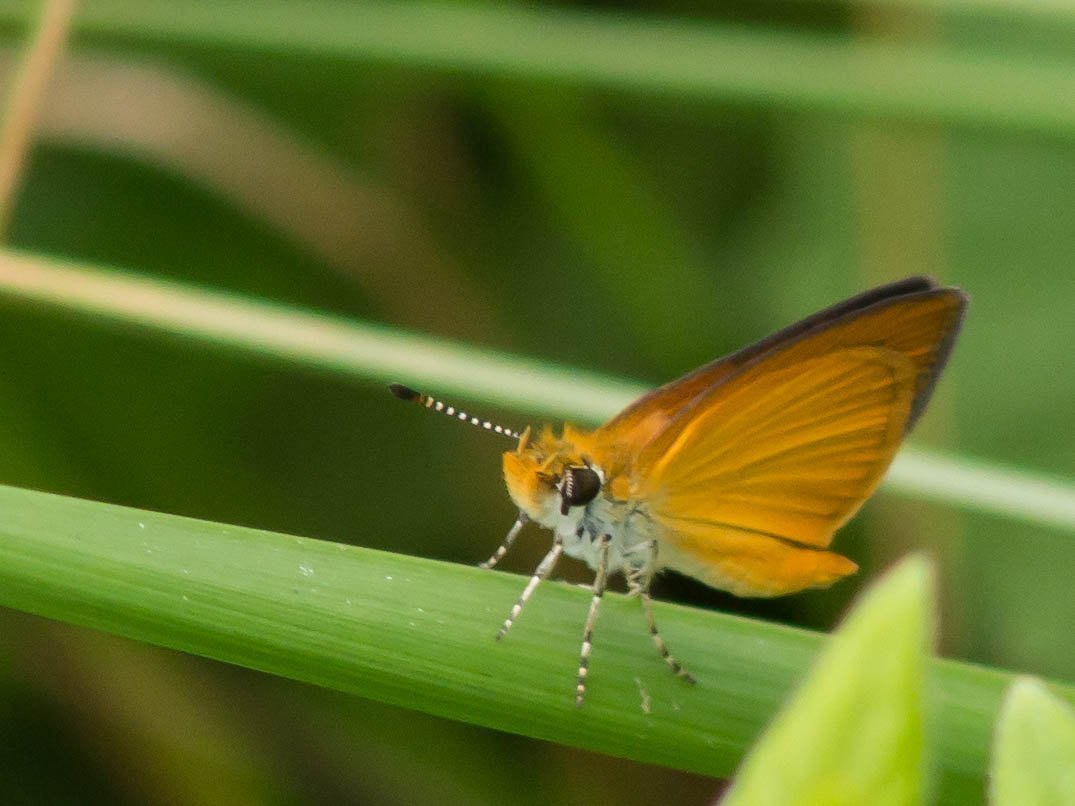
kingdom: Animalia
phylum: Arthropoda
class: Insecta
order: Lepidoptera
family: Hesperiidae
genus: Ancyloxypha
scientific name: Ancyloxypha numitor
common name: Least Skipper
